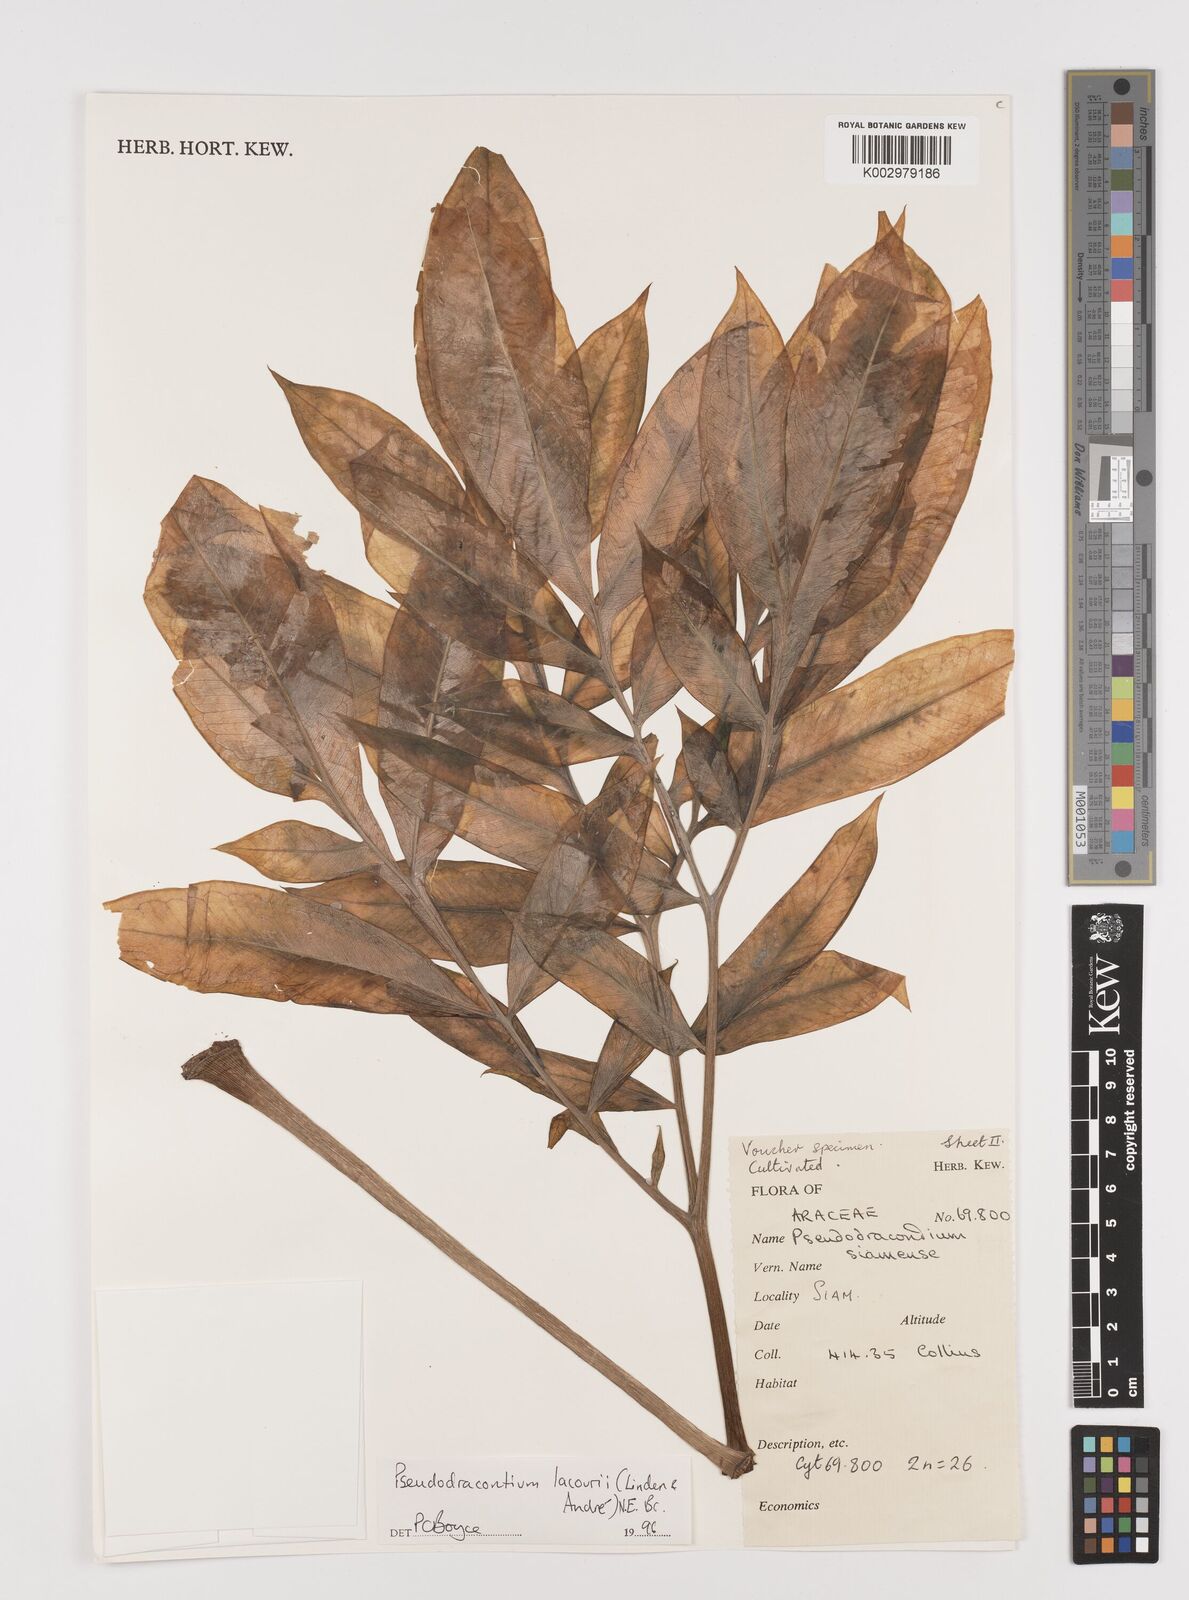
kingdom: Plantae
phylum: Tracheophyta
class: Liliopsida
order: Alismatales
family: Araceae
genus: Amorphophallus
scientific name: Amorphophallus lacourii
